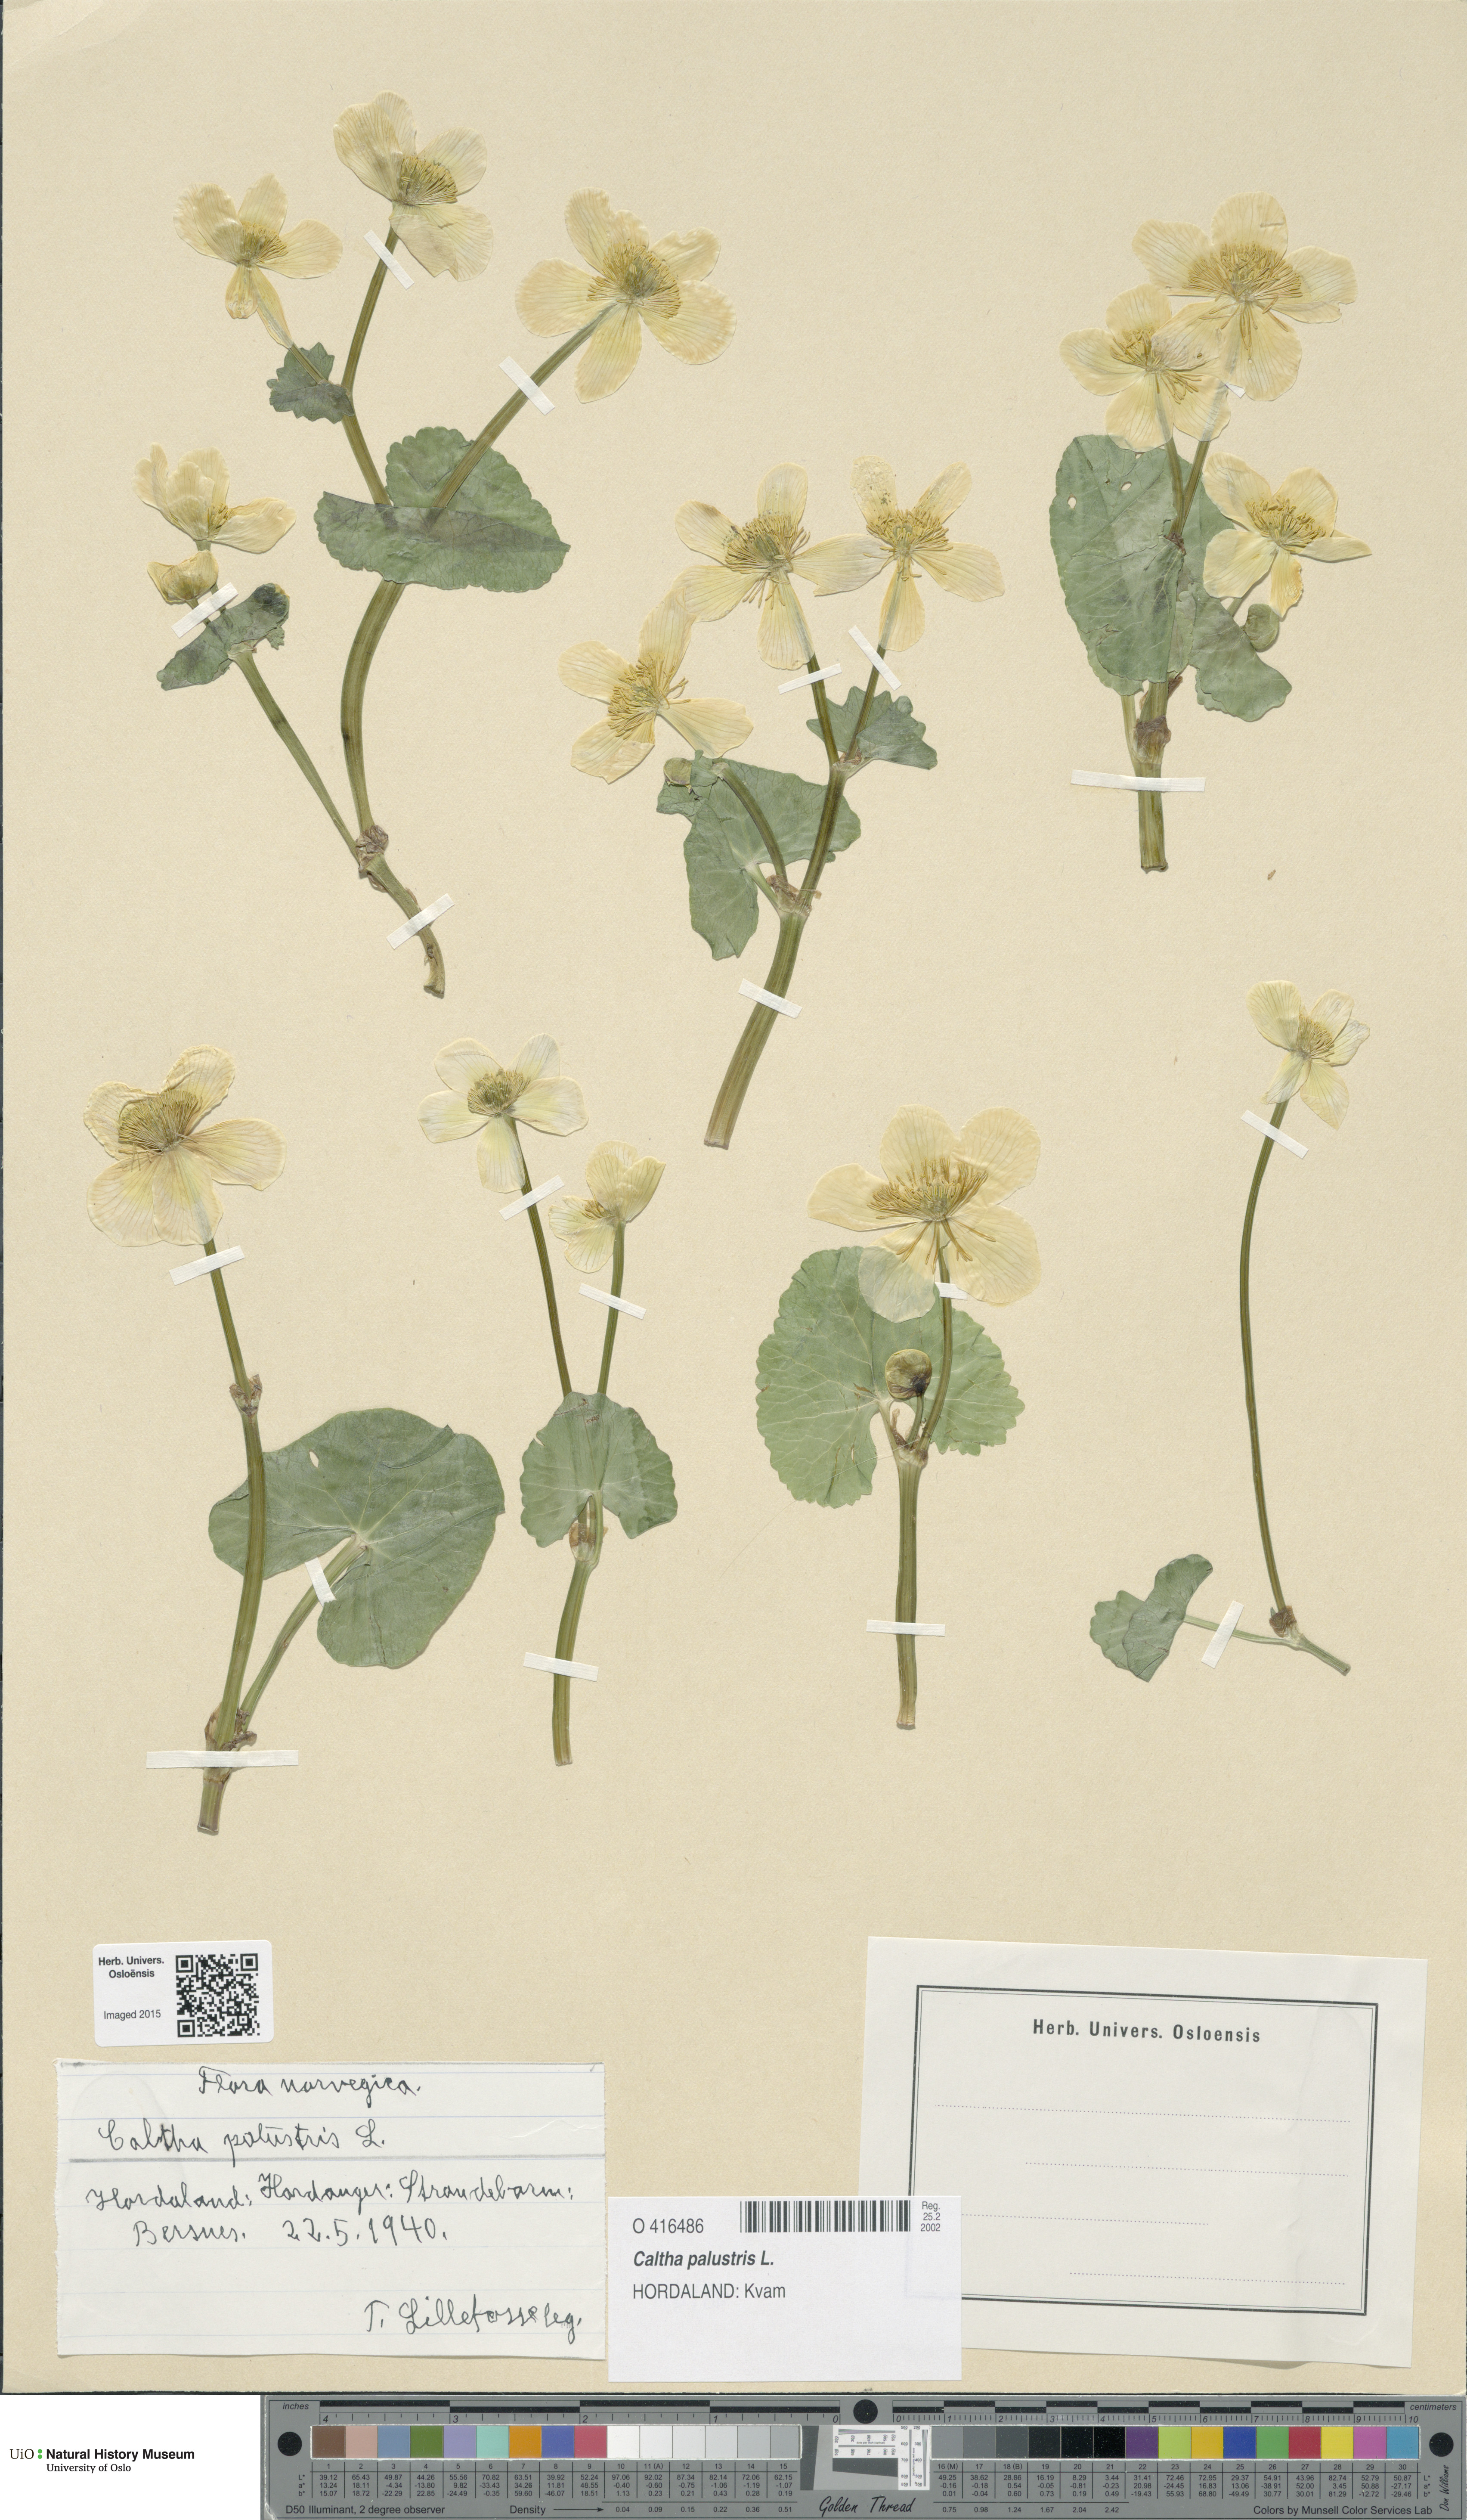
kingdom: Plantae
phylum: Tracheophyta
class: Magnoliopsida
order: Ranunculales
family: Ranunculaceae
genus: Caltha
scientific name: Caltha palustris
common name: Marsh marigold
